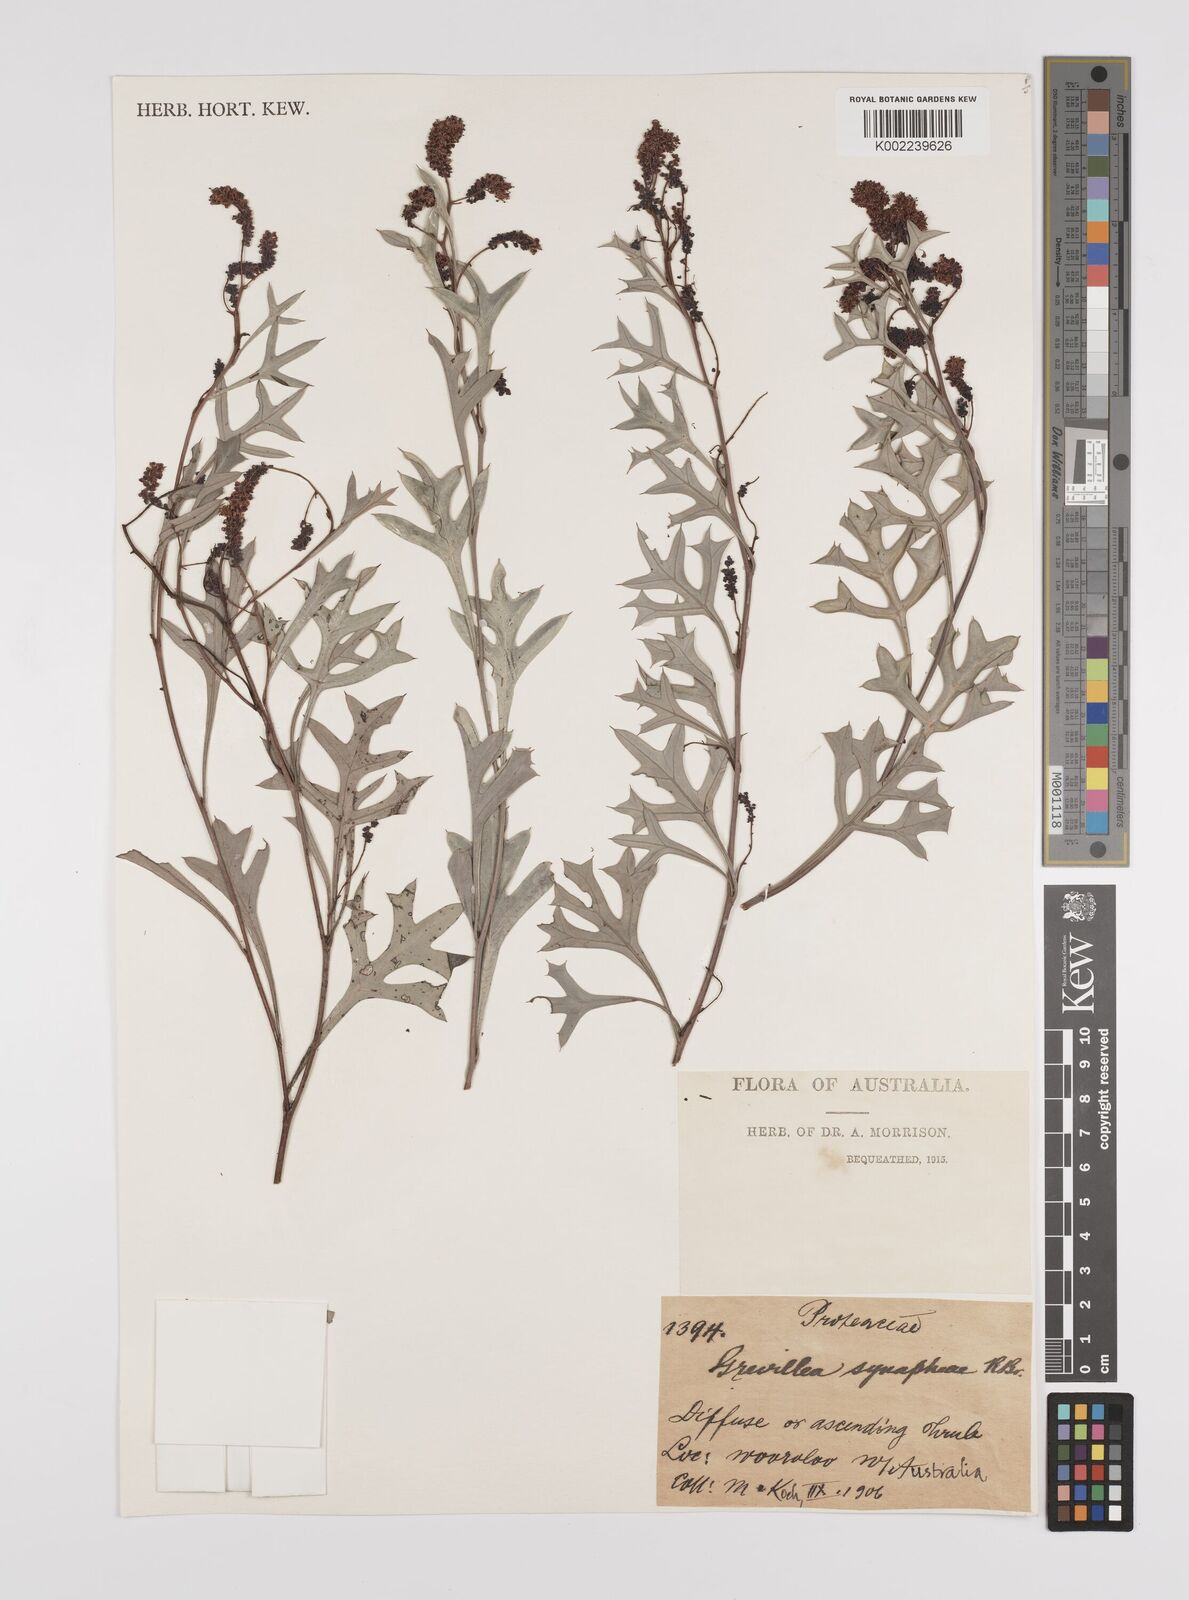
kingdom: Plantae
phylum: Tracheophyta
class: Magnoliopsida
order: Proteales
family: Proteaceae
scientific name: Proteaceae
